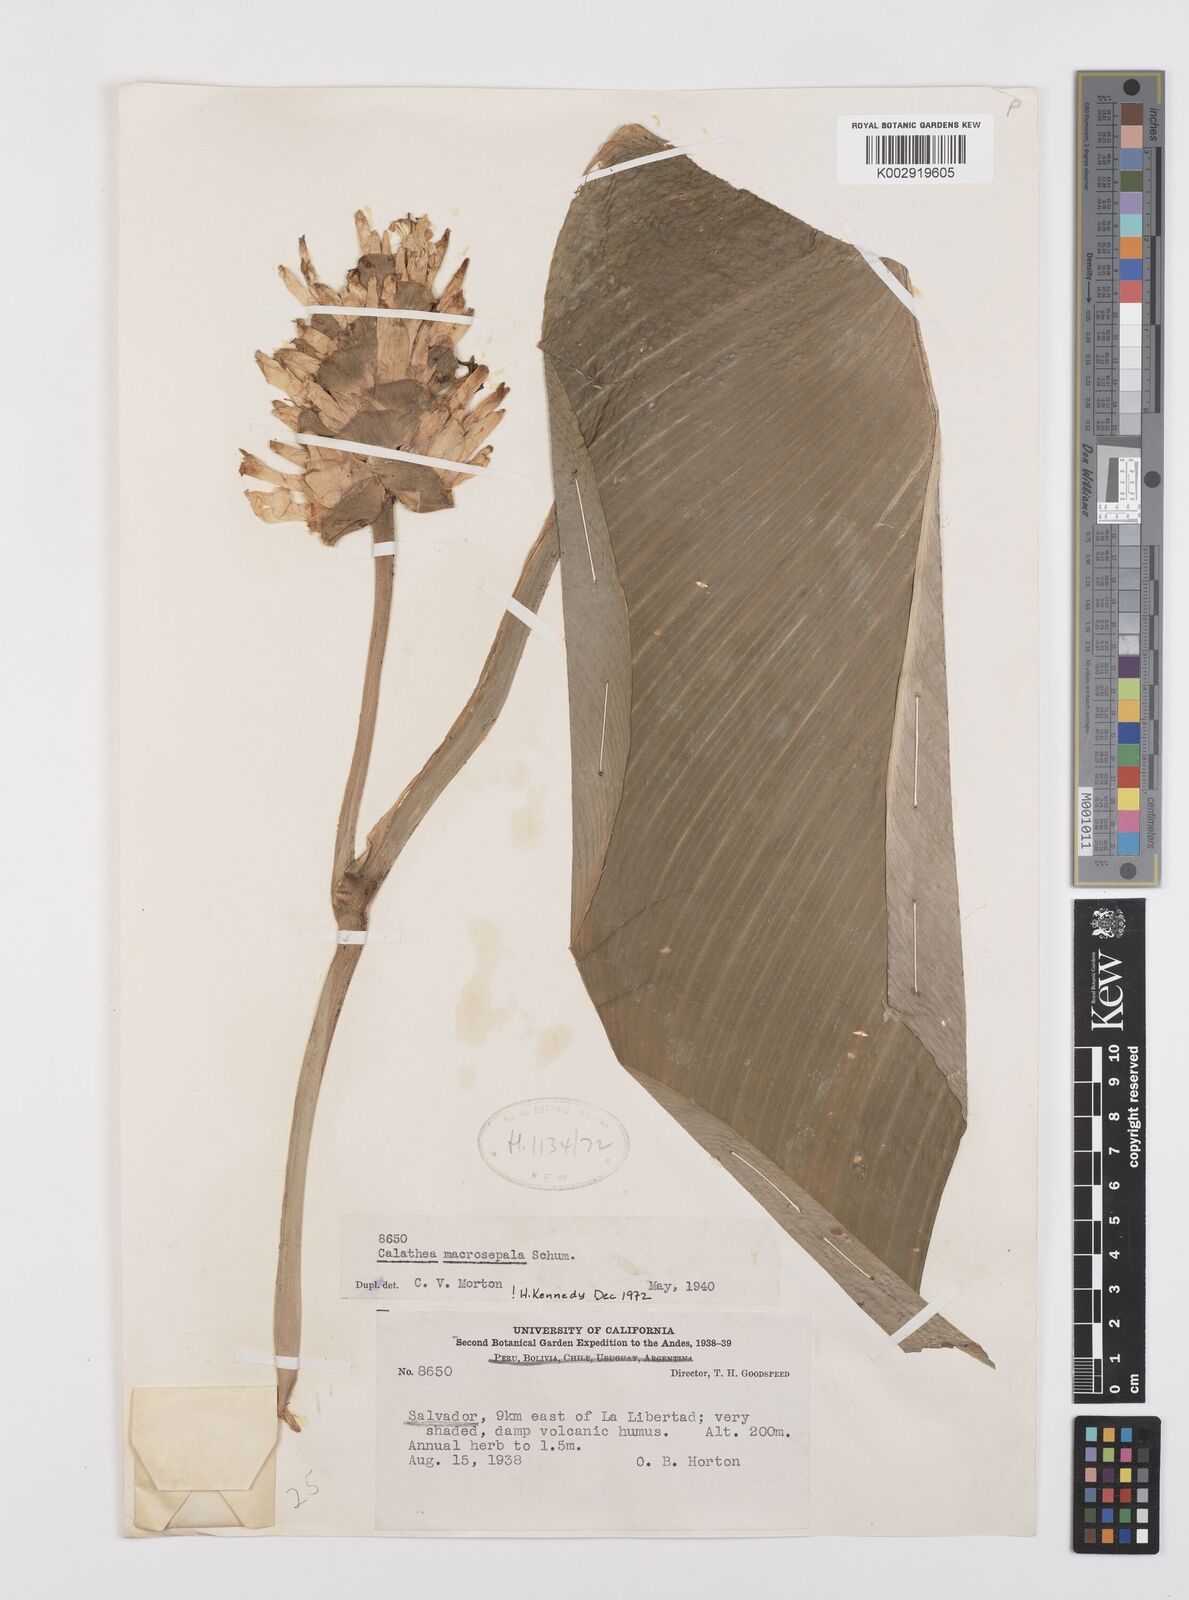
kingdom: Plantae
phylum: Tracheophyta
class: Liliopsida
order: Zingiberales
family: Marantaceae
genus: Goeppertia
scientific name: Goeppertia macrosepala
